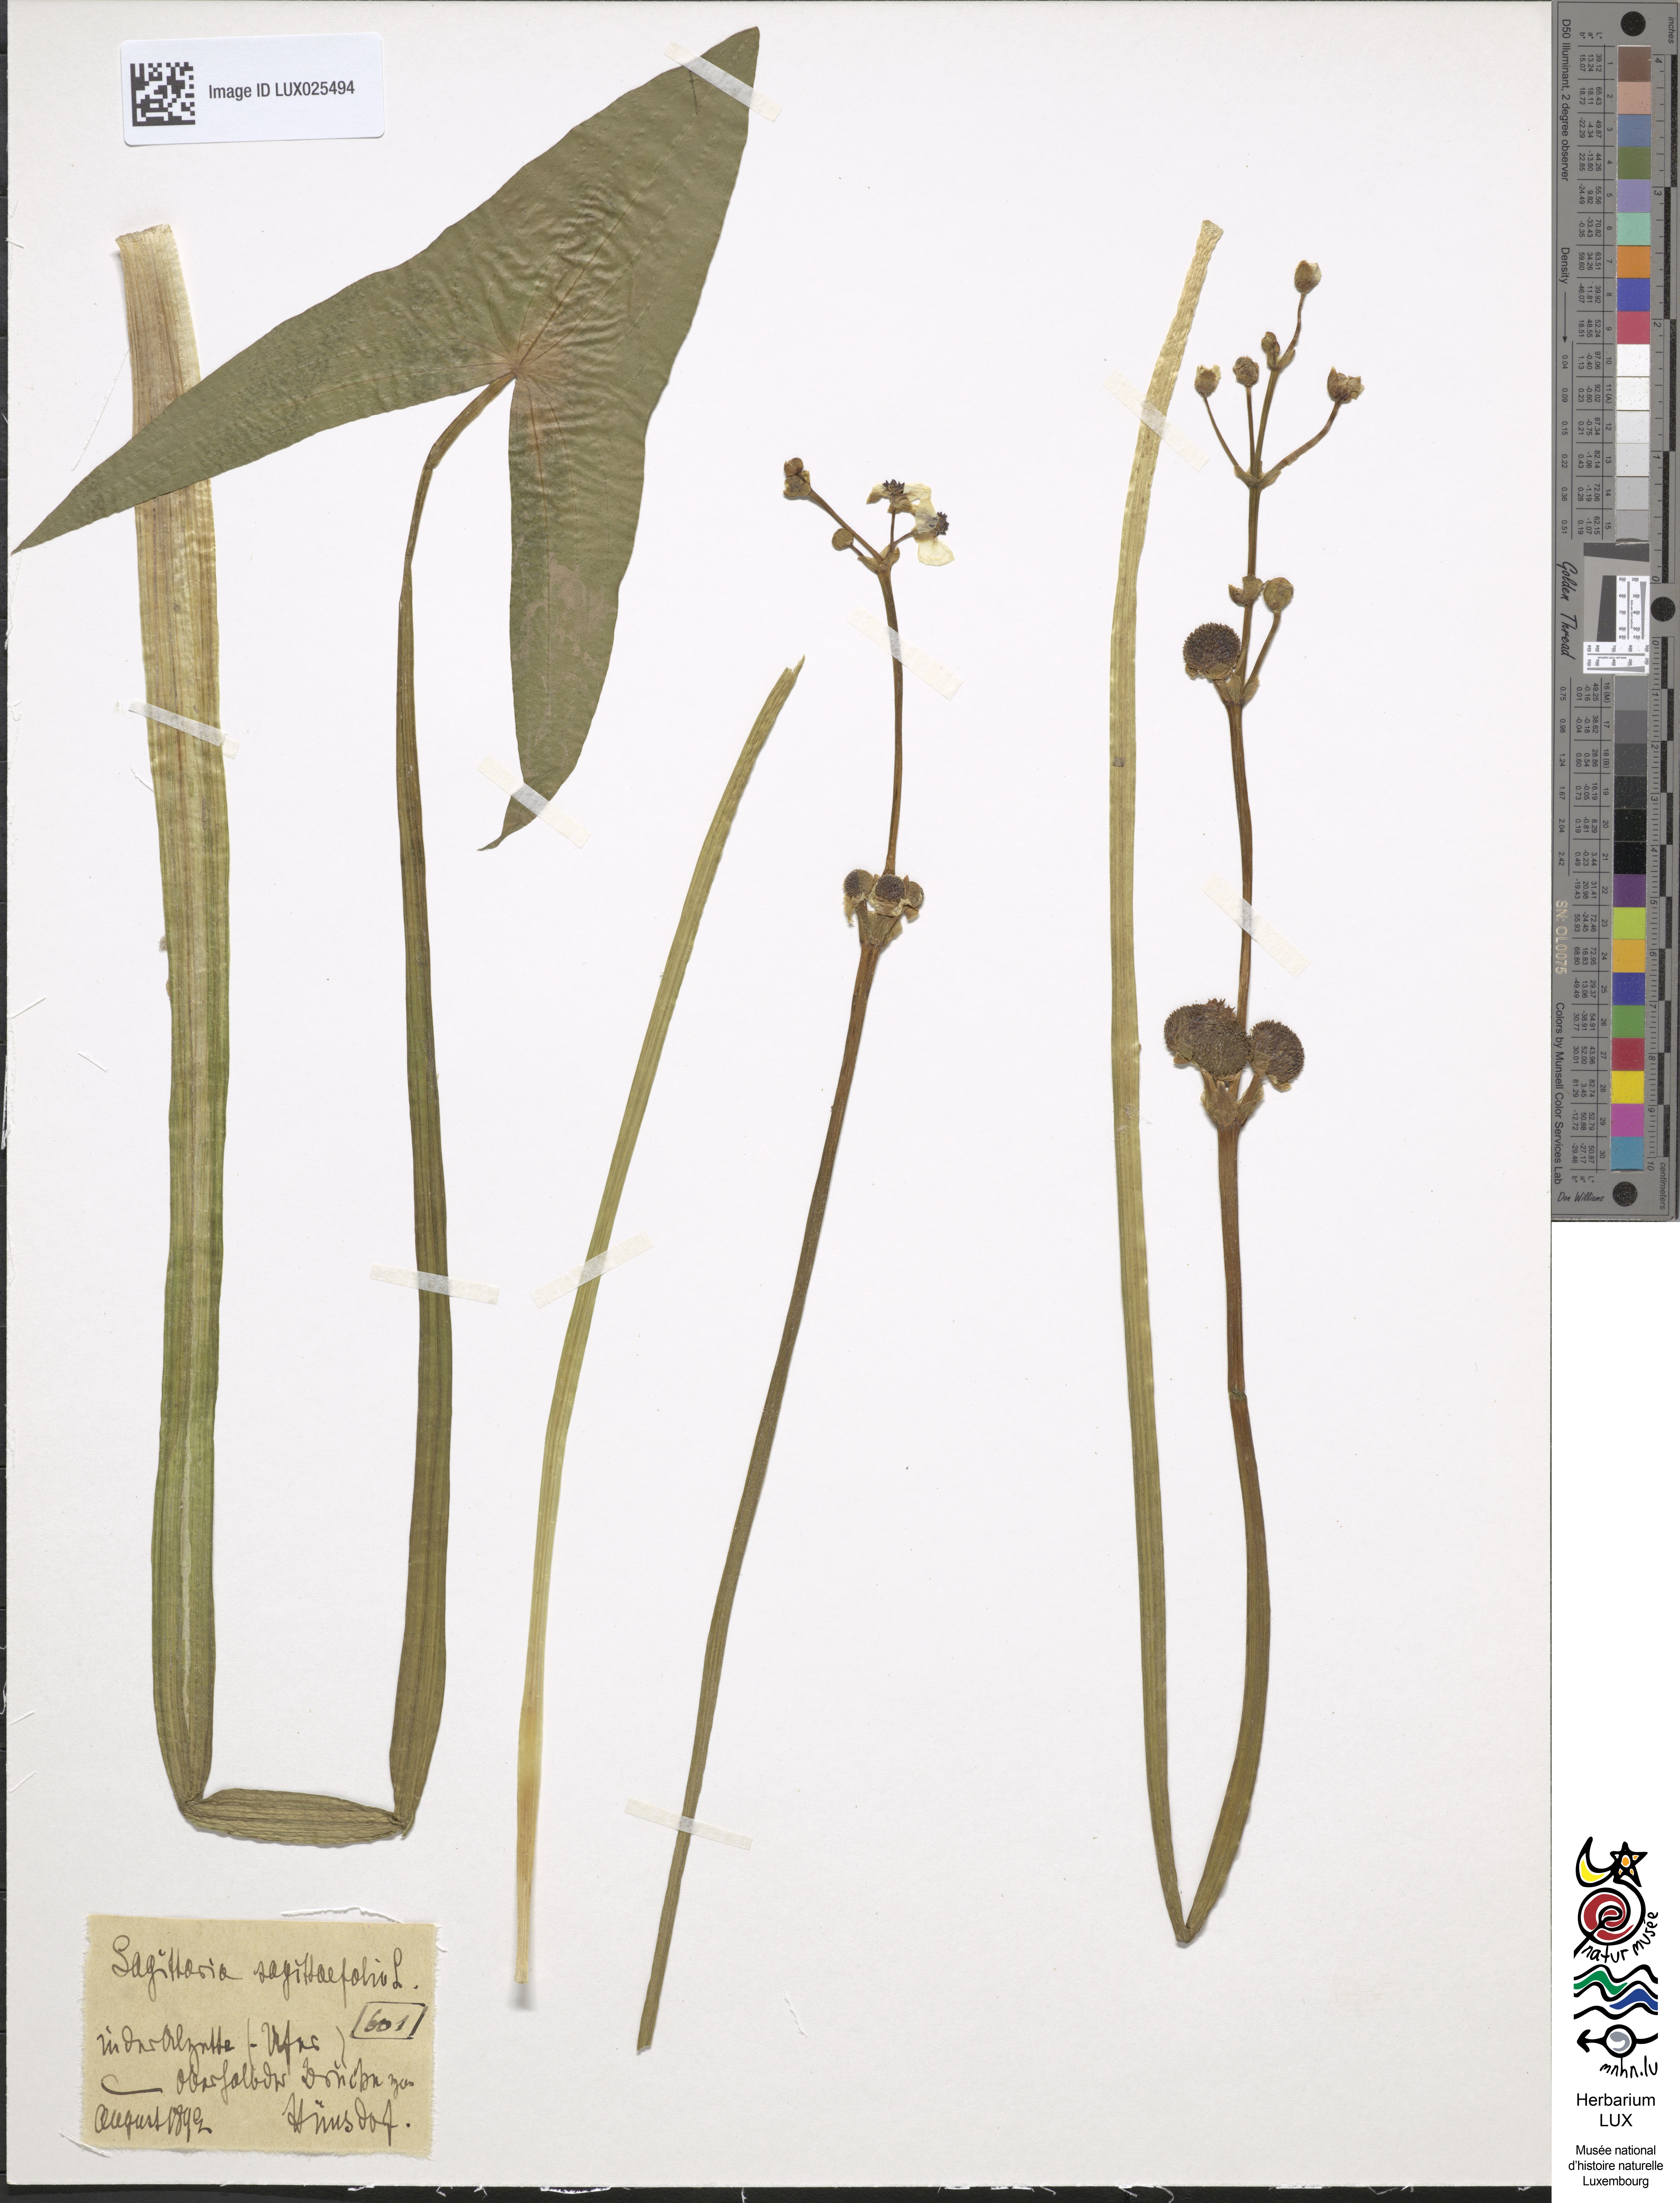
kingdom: Plantae
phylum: Tracheophyta
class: Liliopsida
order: Alismatales
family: Alismataceae
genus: Sagittaria
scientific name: Sagittaria sagittifolia
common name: Arrowhead
